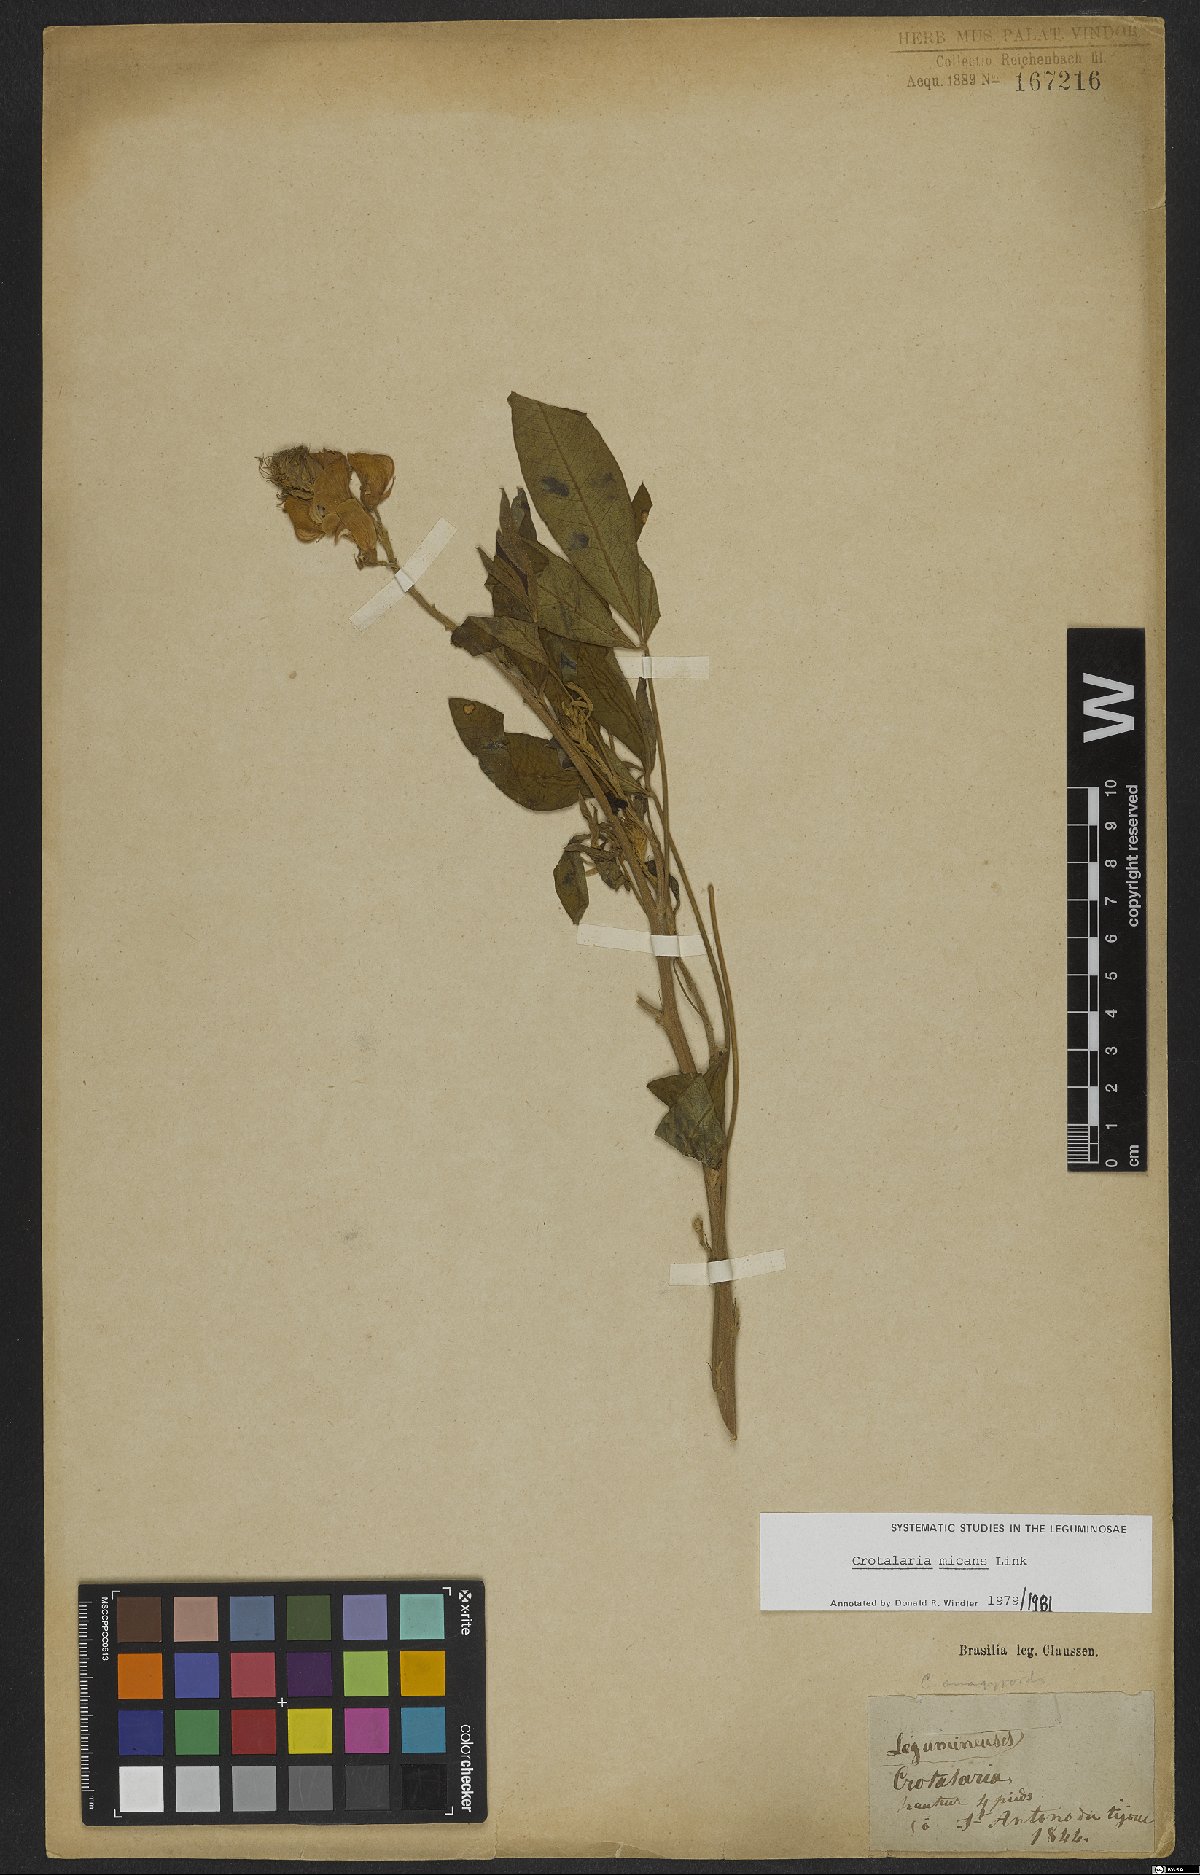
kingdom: Plantae
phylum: Tracheophyta
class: Magnoliopsida
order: Fabales
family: Fabaceae
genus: Crotalaria
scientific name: Crotalaria micans
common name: Caracas rattlebox
